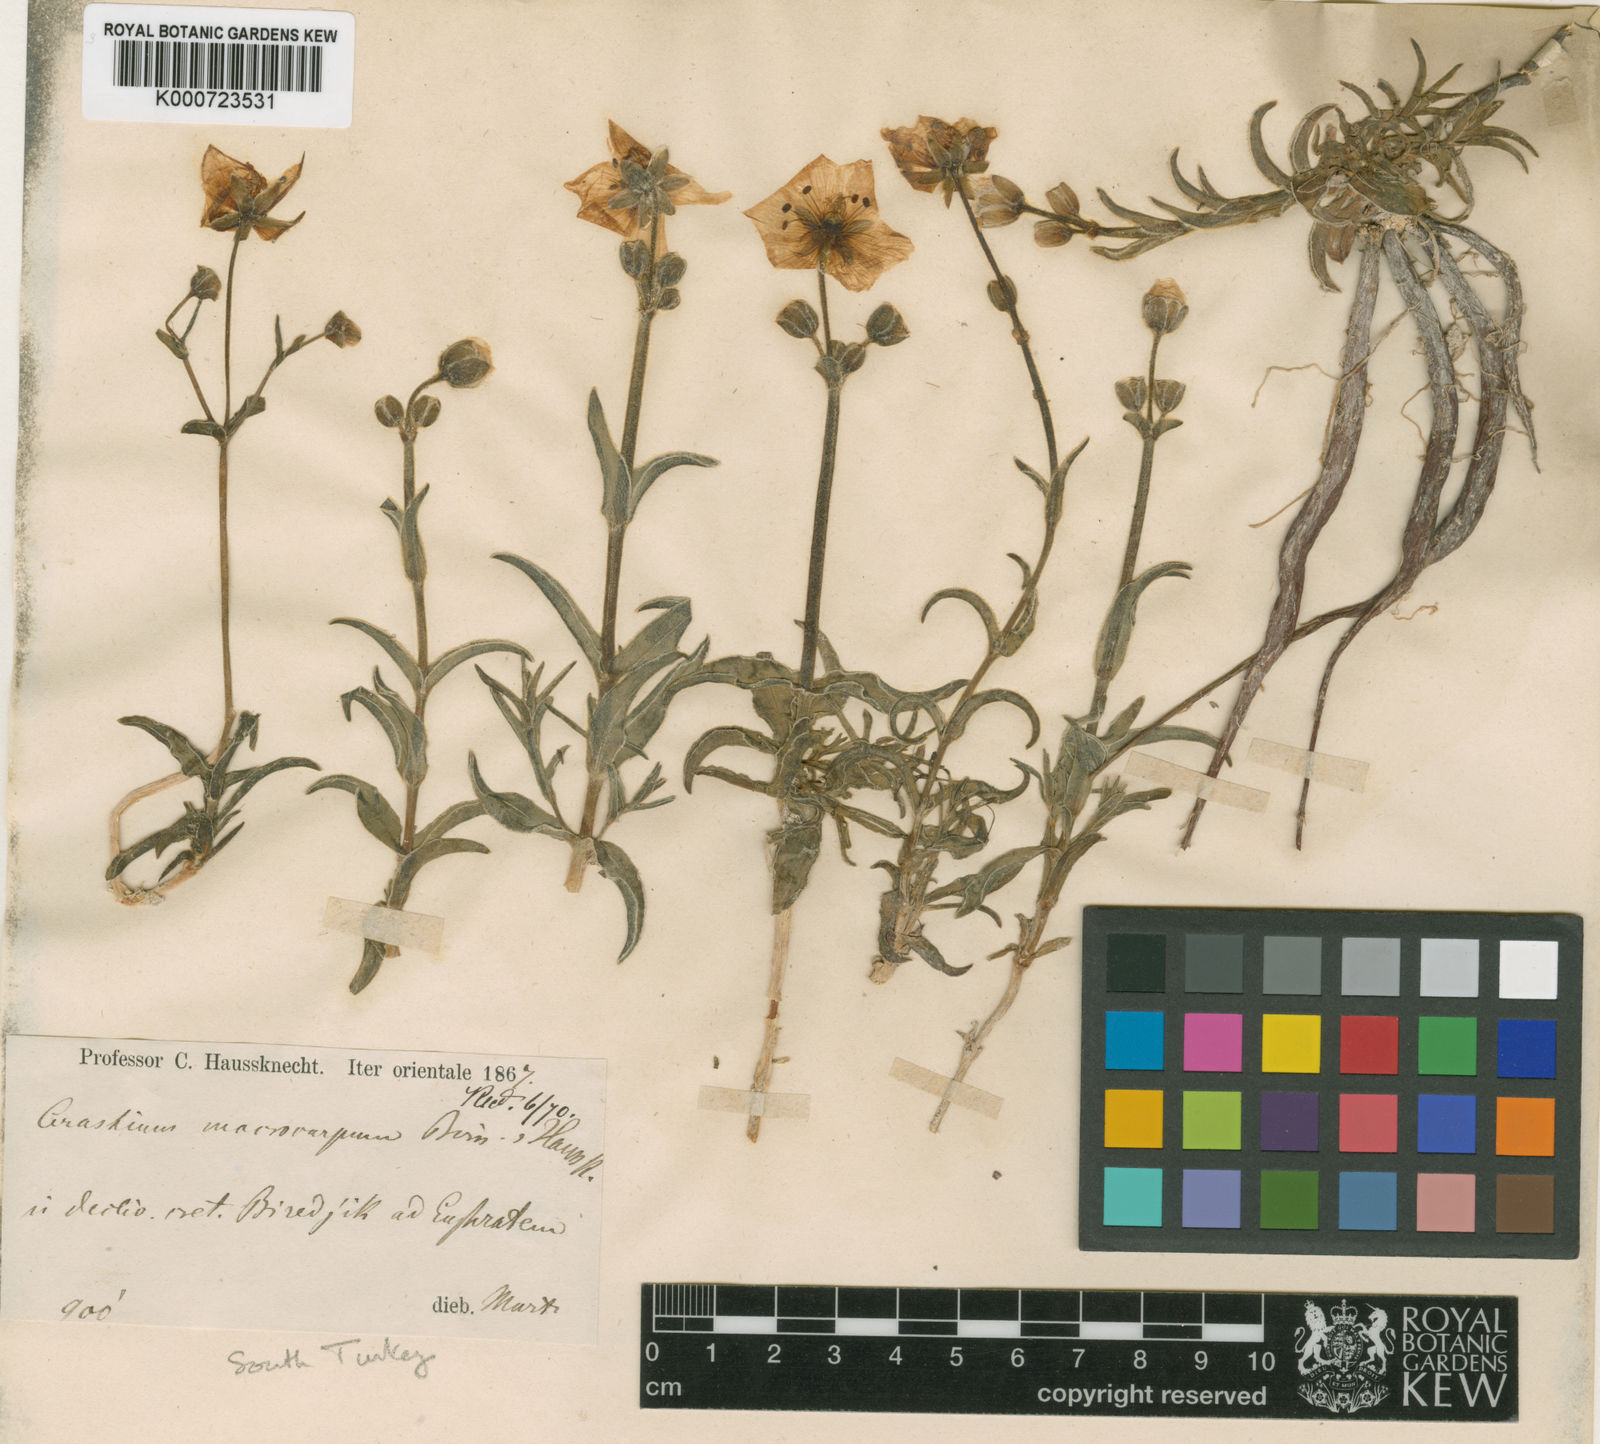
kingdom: Plantae
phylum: Tracheophyta
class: Magnoliopsida
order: Caryophyllales
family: Caryophyllaceae
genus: Cerastium
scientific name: Cerastium haussknechtii
